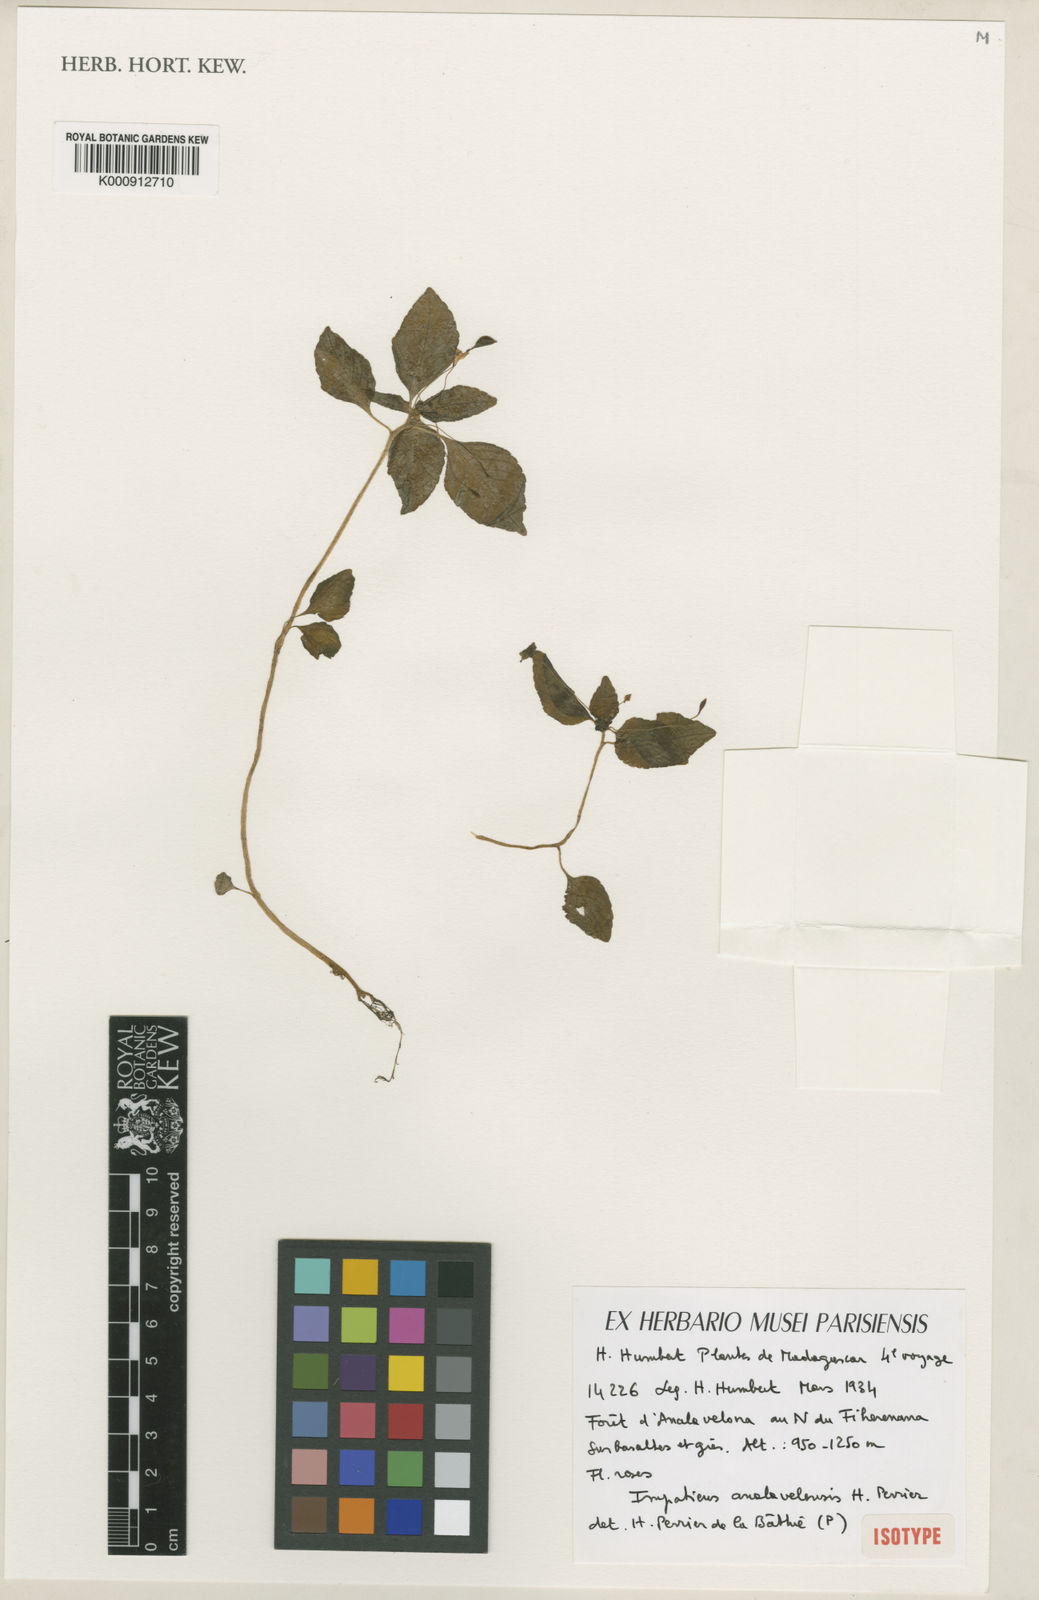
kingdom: Plantae
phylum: Tracheophyta
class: Magnoliopsida
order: Ericales
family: Balsaminaceae
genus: Impatiens
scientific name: Impatiens analavelensis
